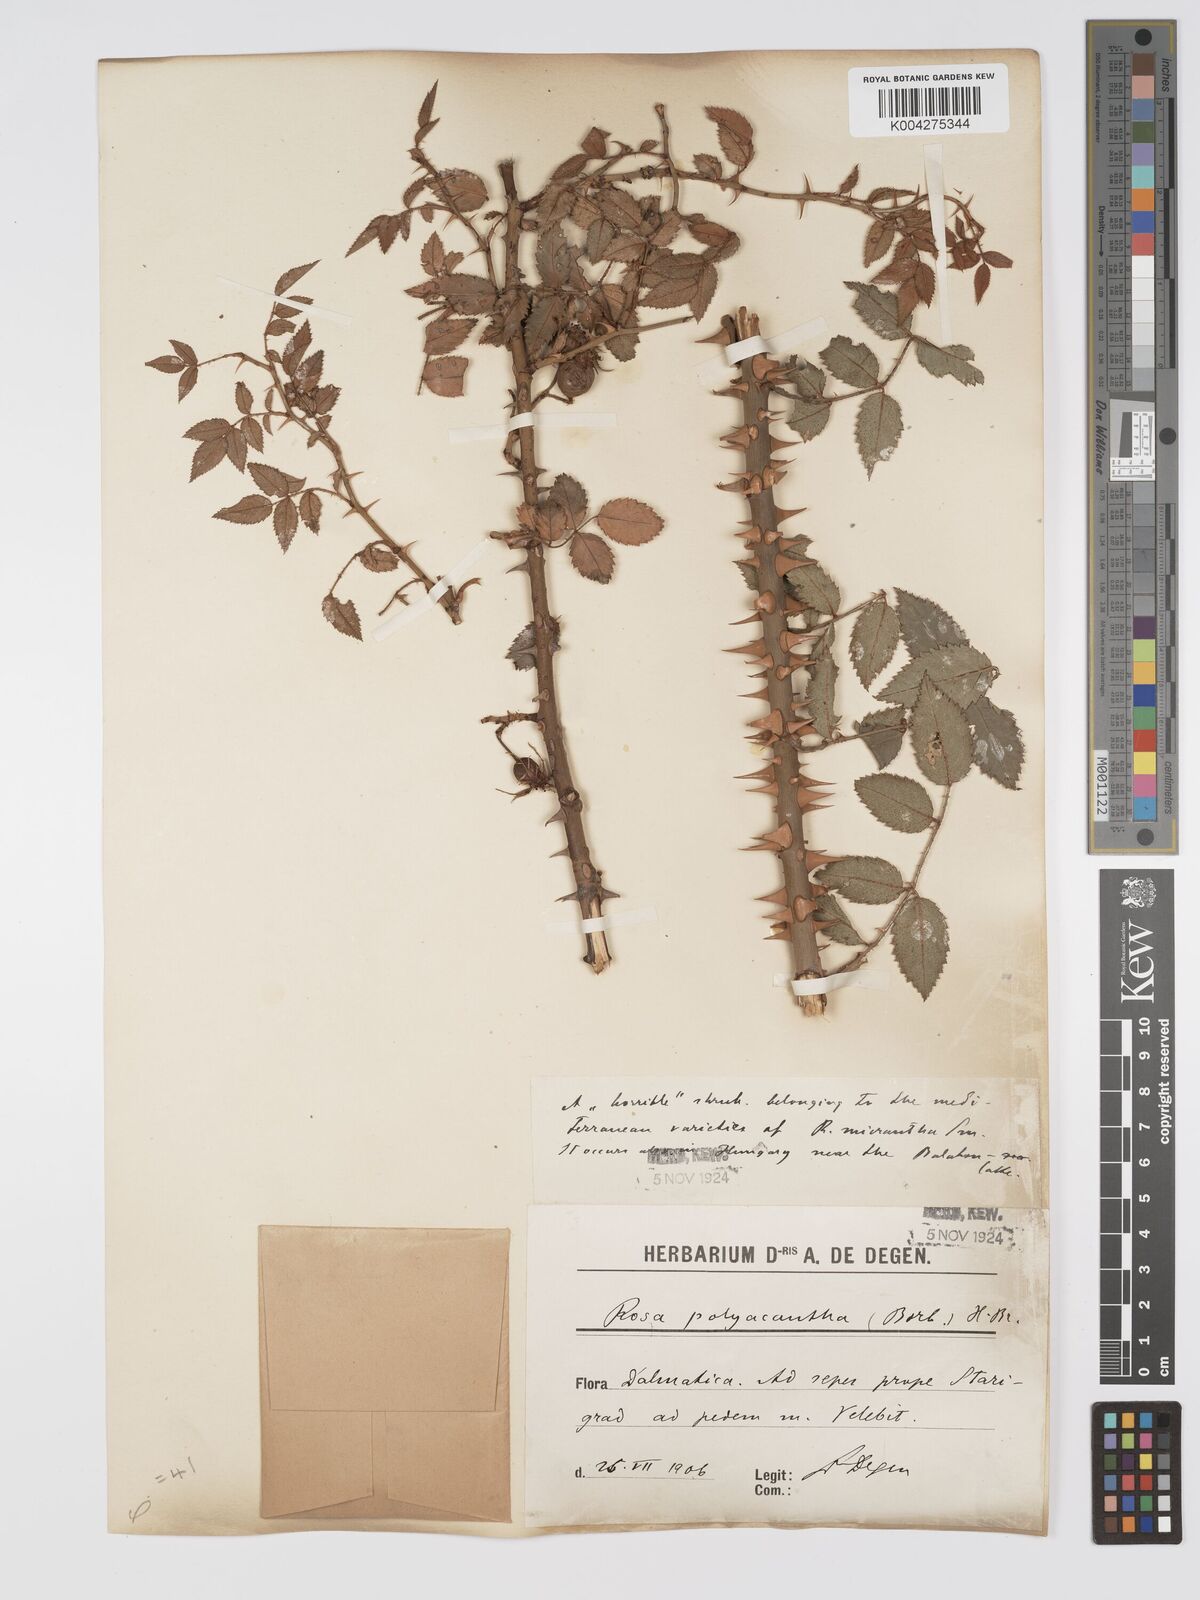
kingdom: Plantae
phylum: Tracheophyta
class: Magnoliopsida
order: Rosales
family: Rosaceae
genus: Rosa
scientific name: Rosa
